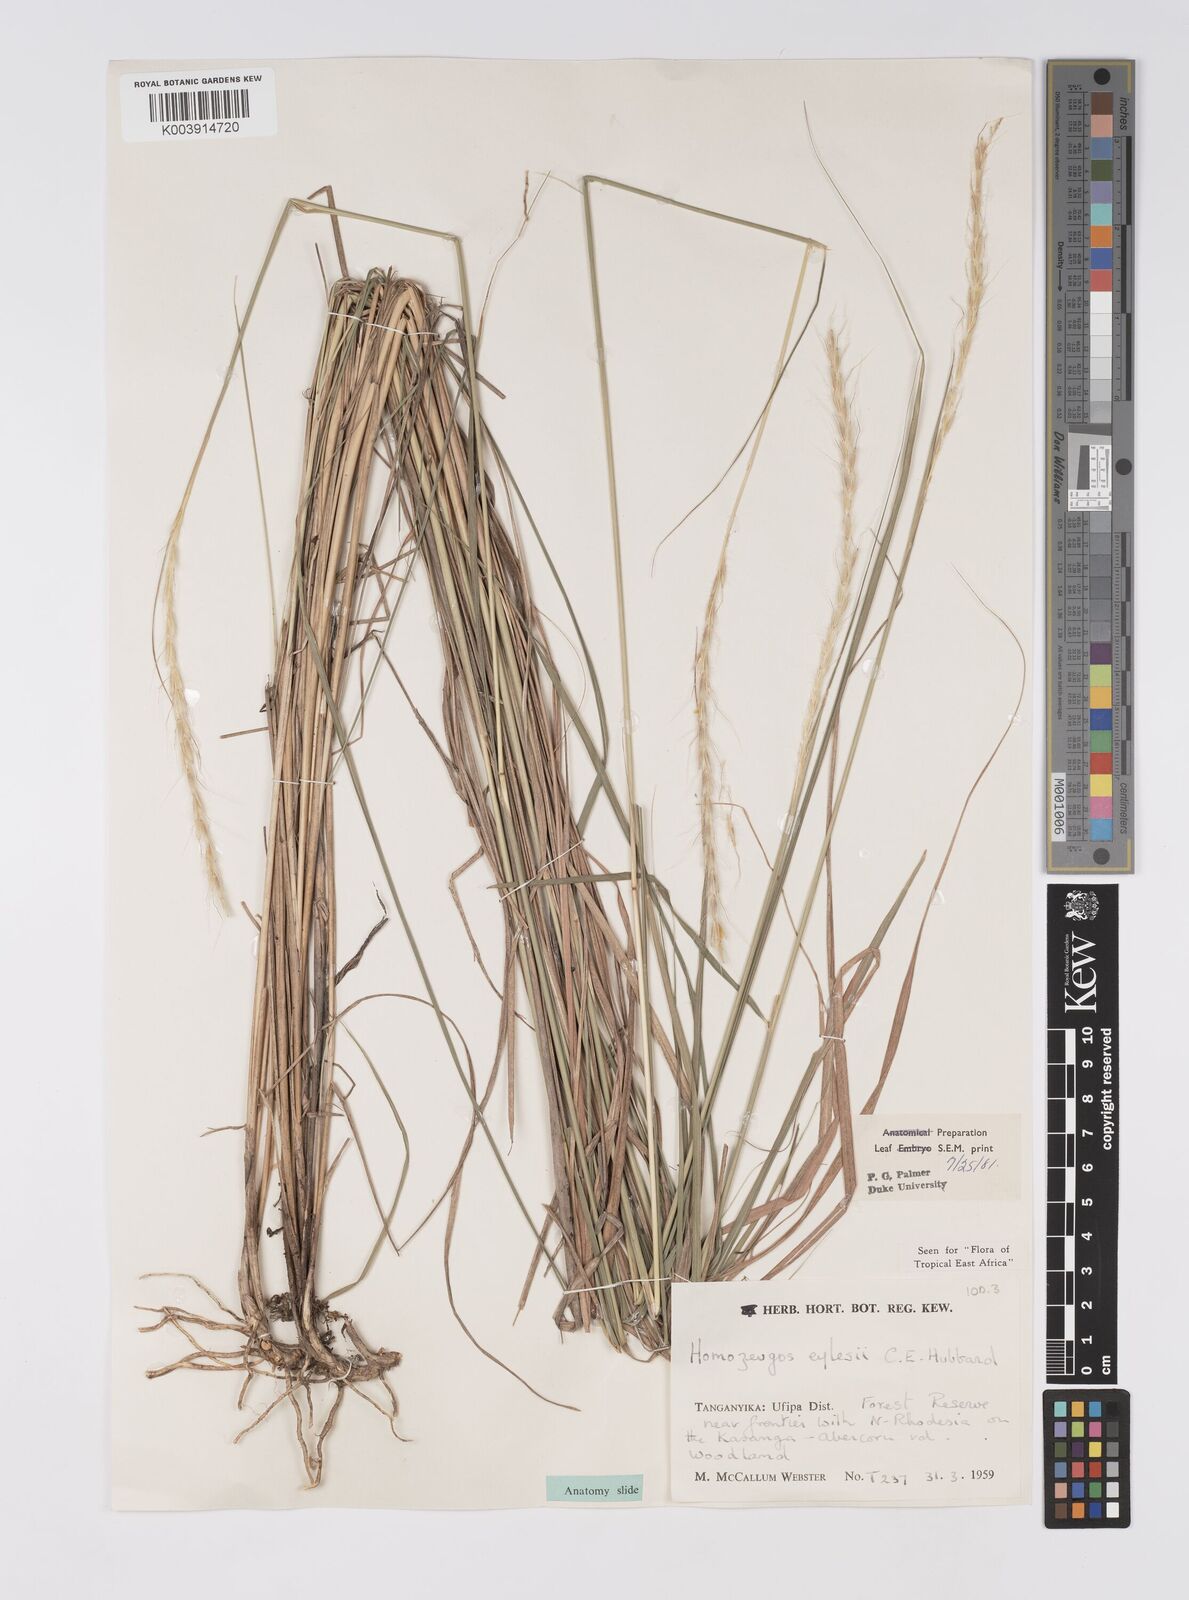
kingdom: Plantae
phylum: Tracheophyta
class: Liliopsida
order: Poales
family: Poaceae
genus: Homozeugos
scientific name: Homozeugos eylesii
